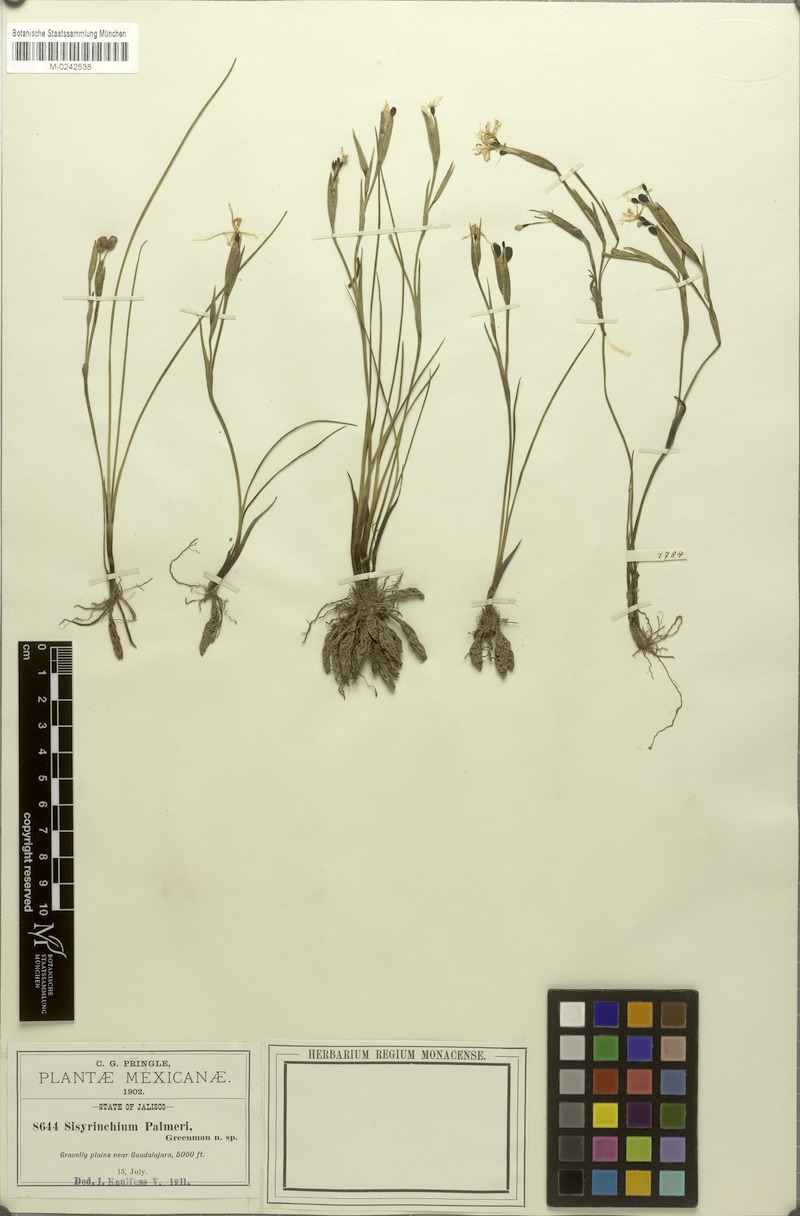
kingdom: Plantae
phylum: Tracheophyta
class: Liliopsida
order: Asparagales
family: Iridaceae
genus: Sisyrinchium
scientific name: Sisyrinchium tolucense
